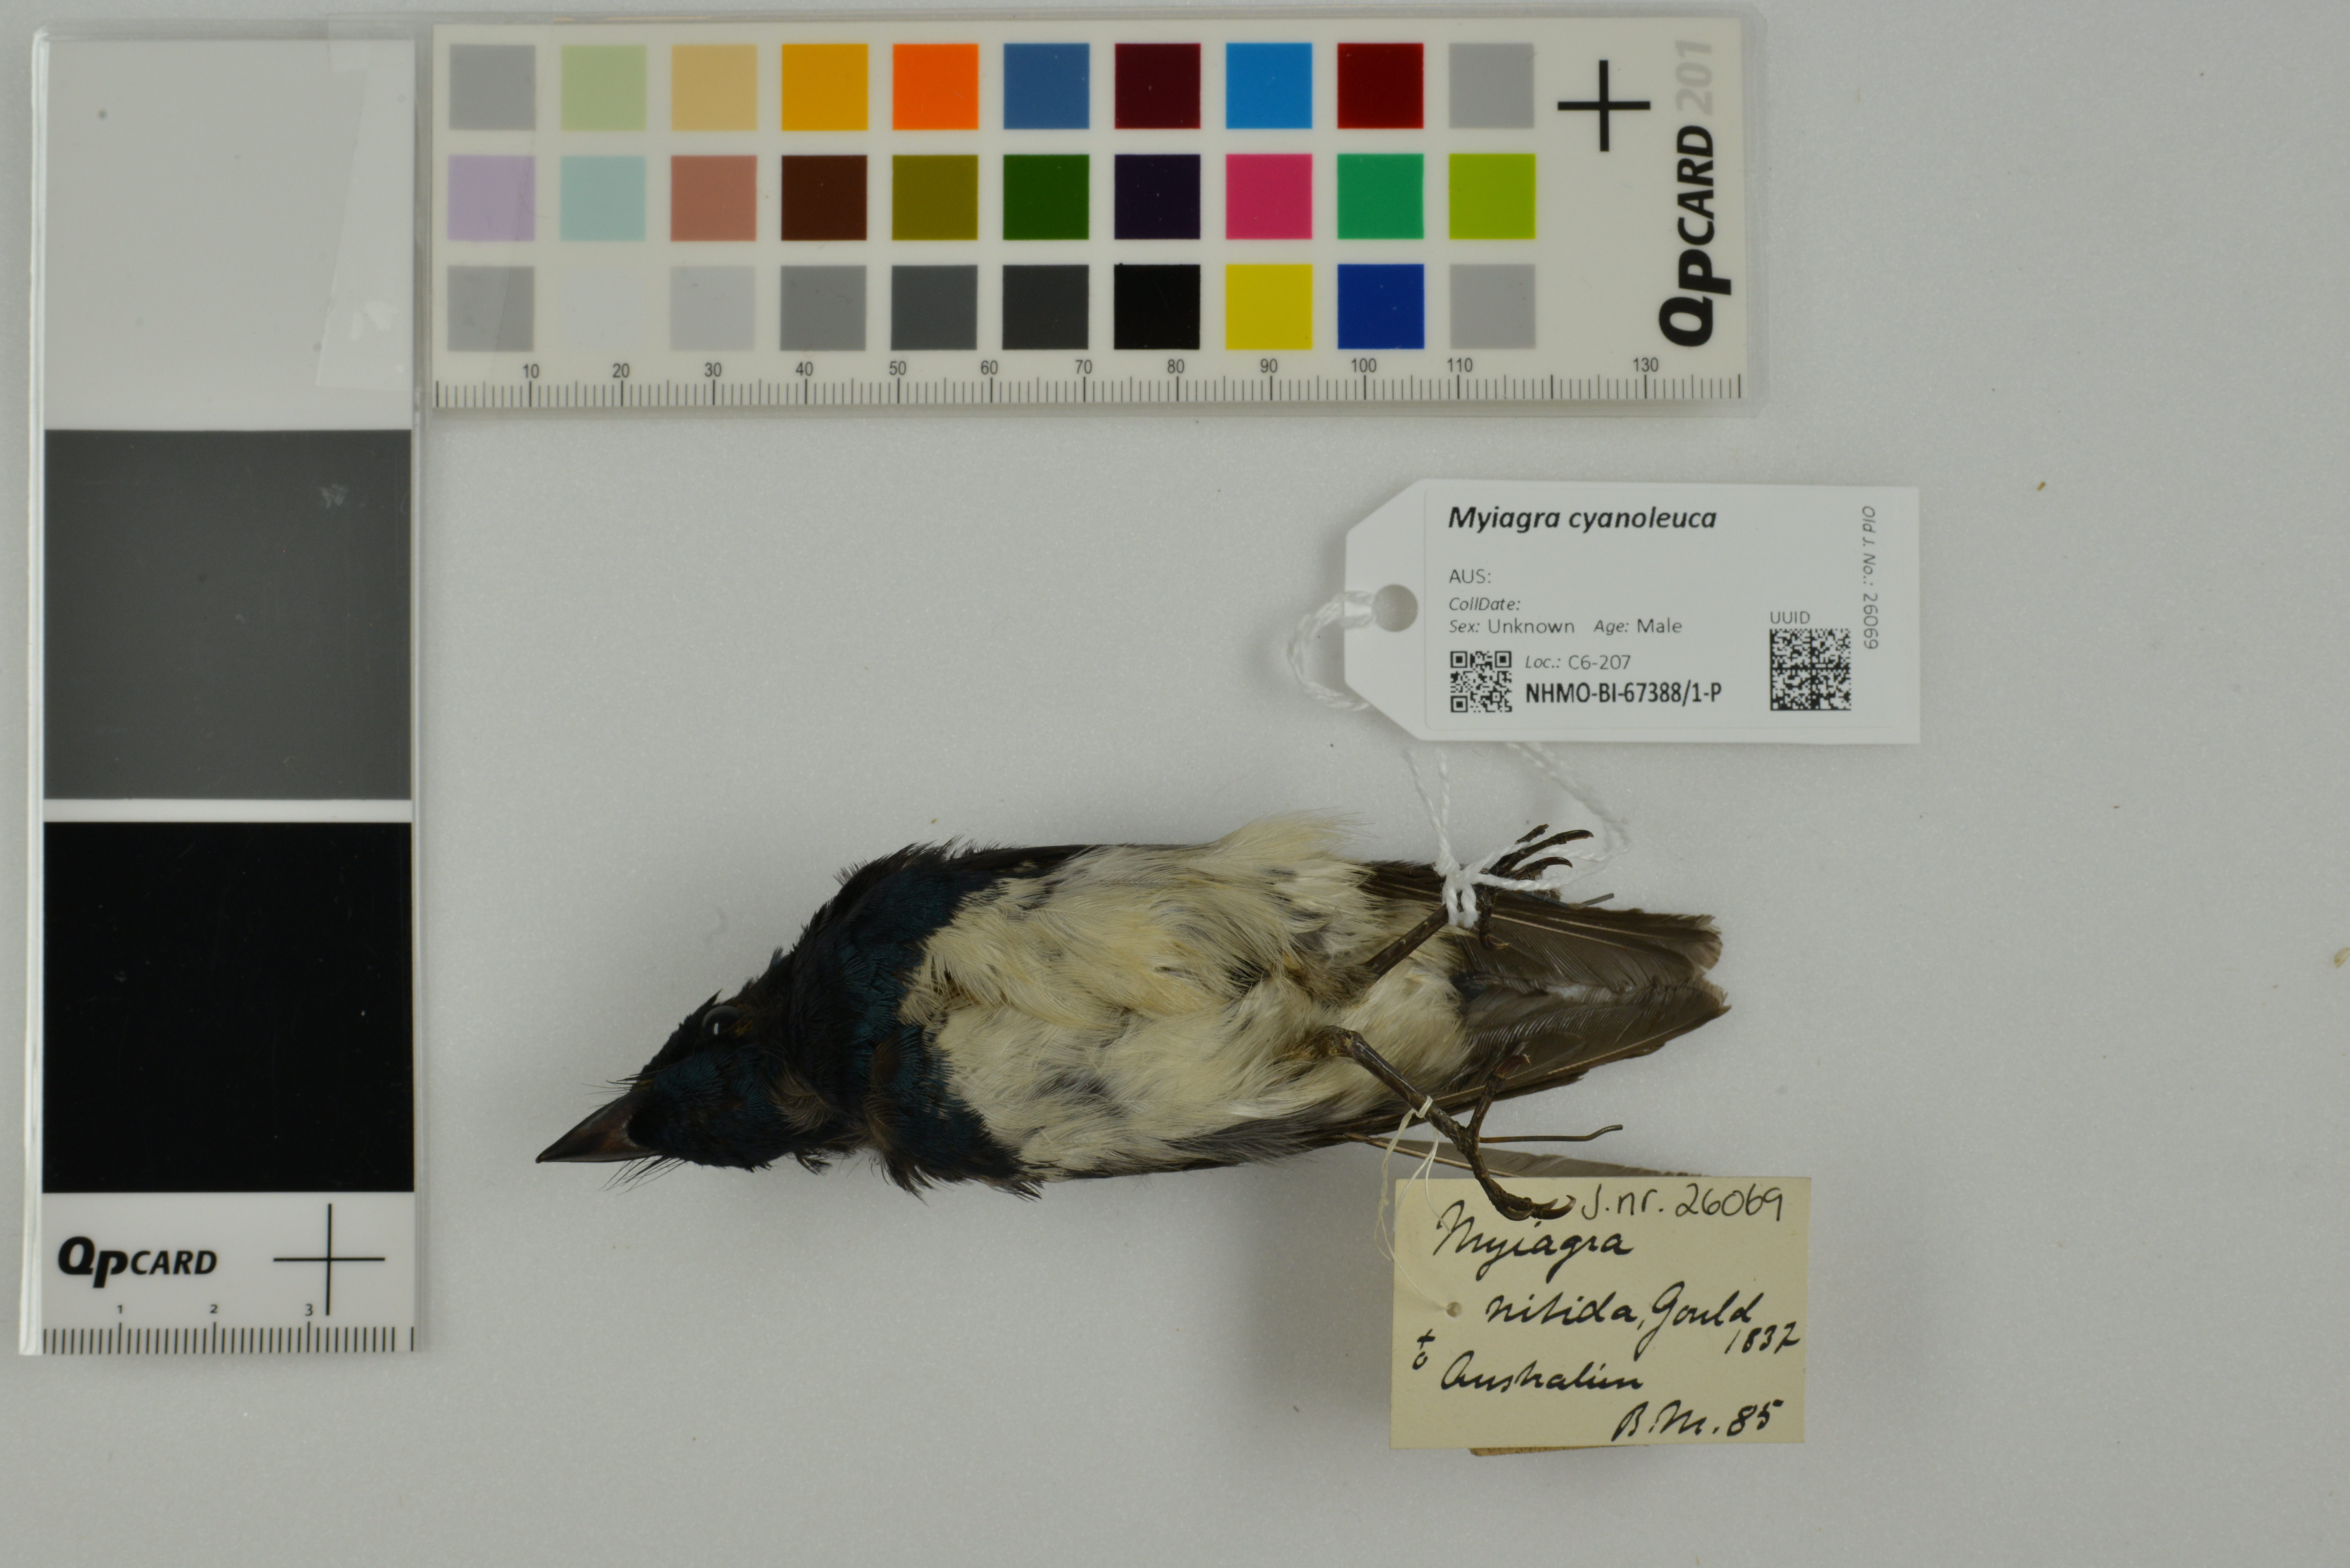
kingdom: Animalia
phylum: Chordata
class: Aves
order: Passeriformes
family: Monarchidae
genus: Myiagra
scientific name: Myiagra cyanoleuca
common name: Satin flycatcher
